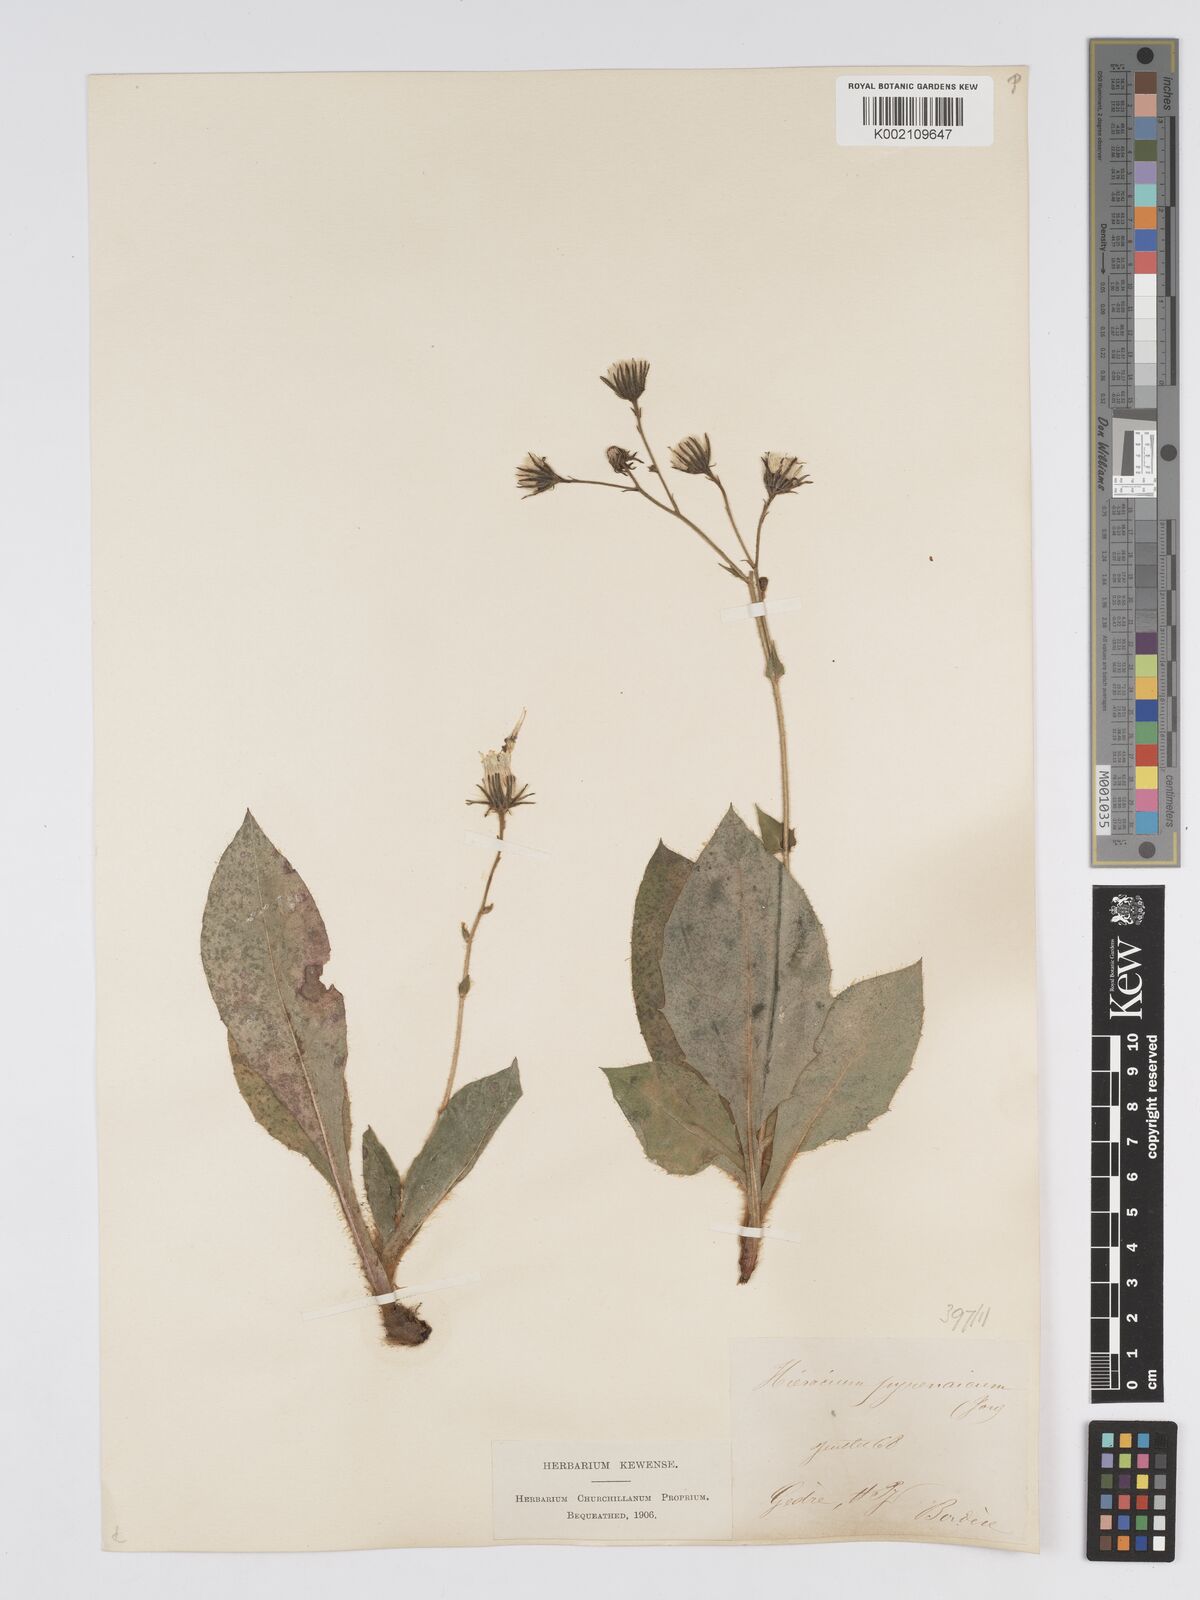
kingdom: Plantae
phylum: Tracheophyta
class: Magnoliopsida
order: Asterales
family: Asteraceae
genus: Hieracium
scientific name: Hieracium nobile
